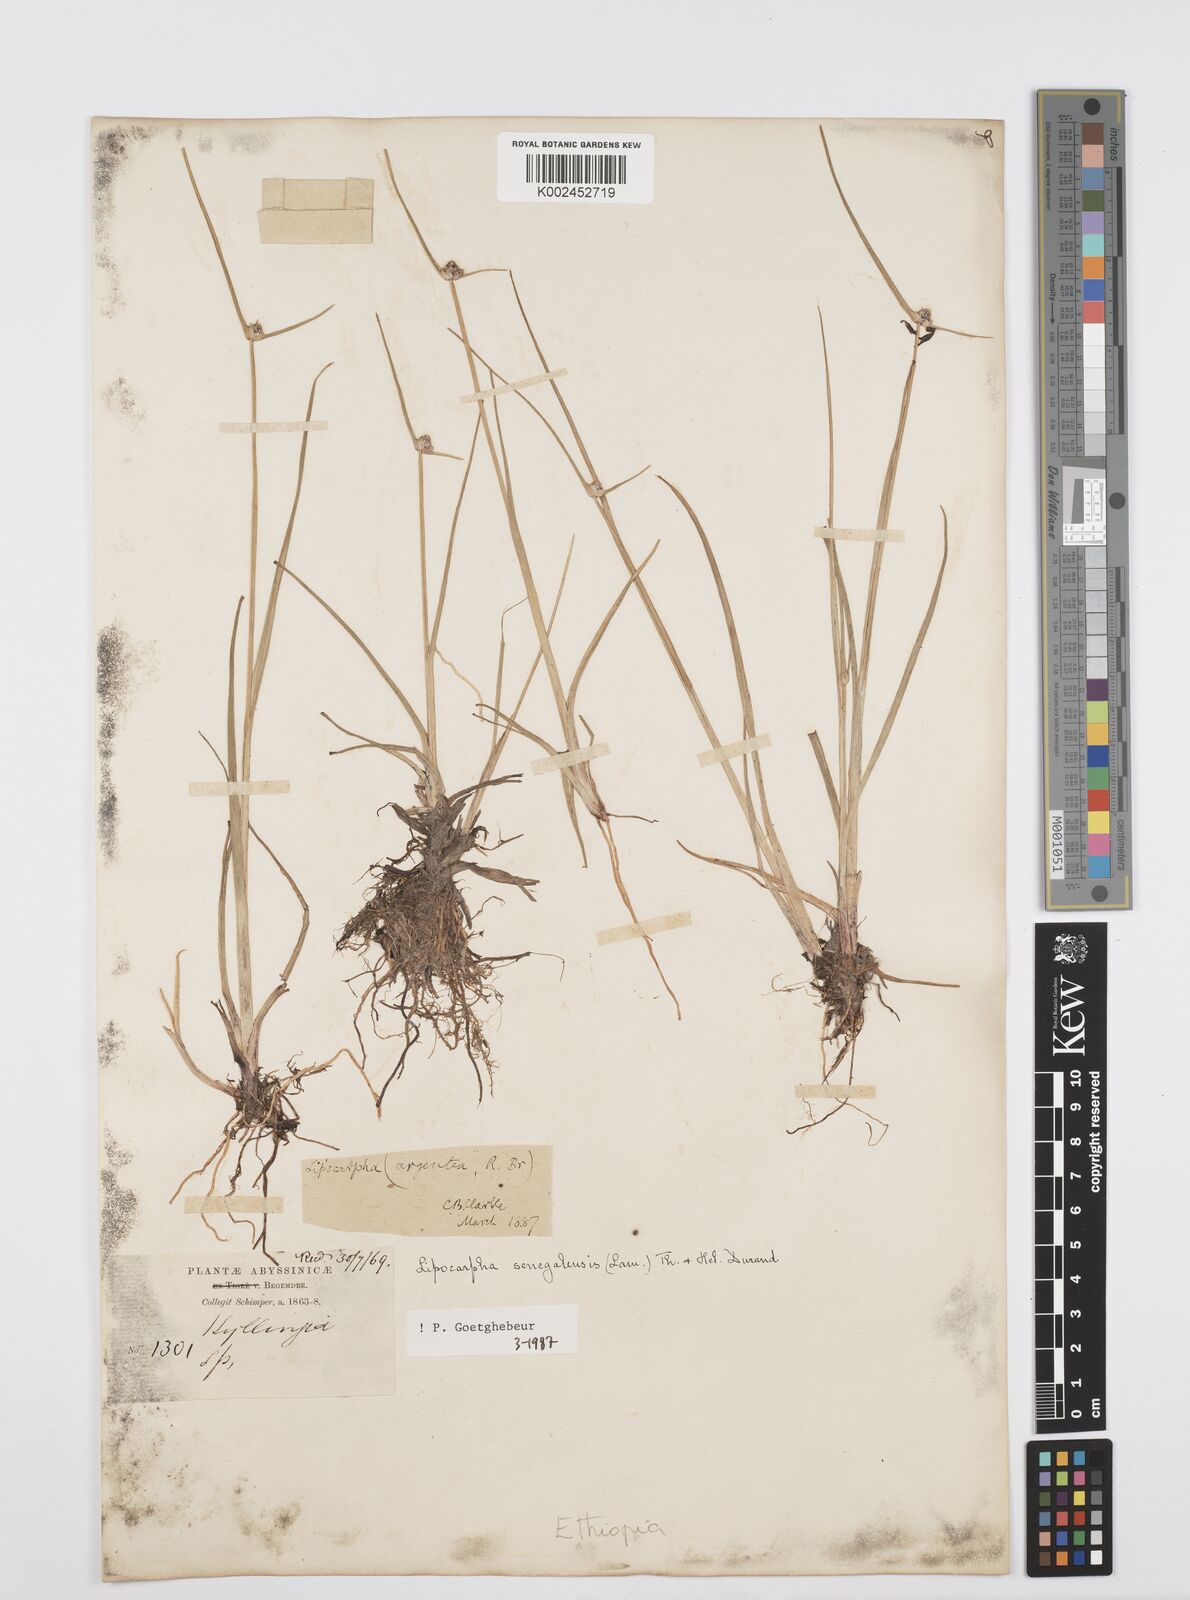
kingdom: Plantae
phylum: Tracheophyta
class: Liliopsida
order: Poales
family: Cyperaceae
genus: Cyperus
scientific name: Cyperus albescens
